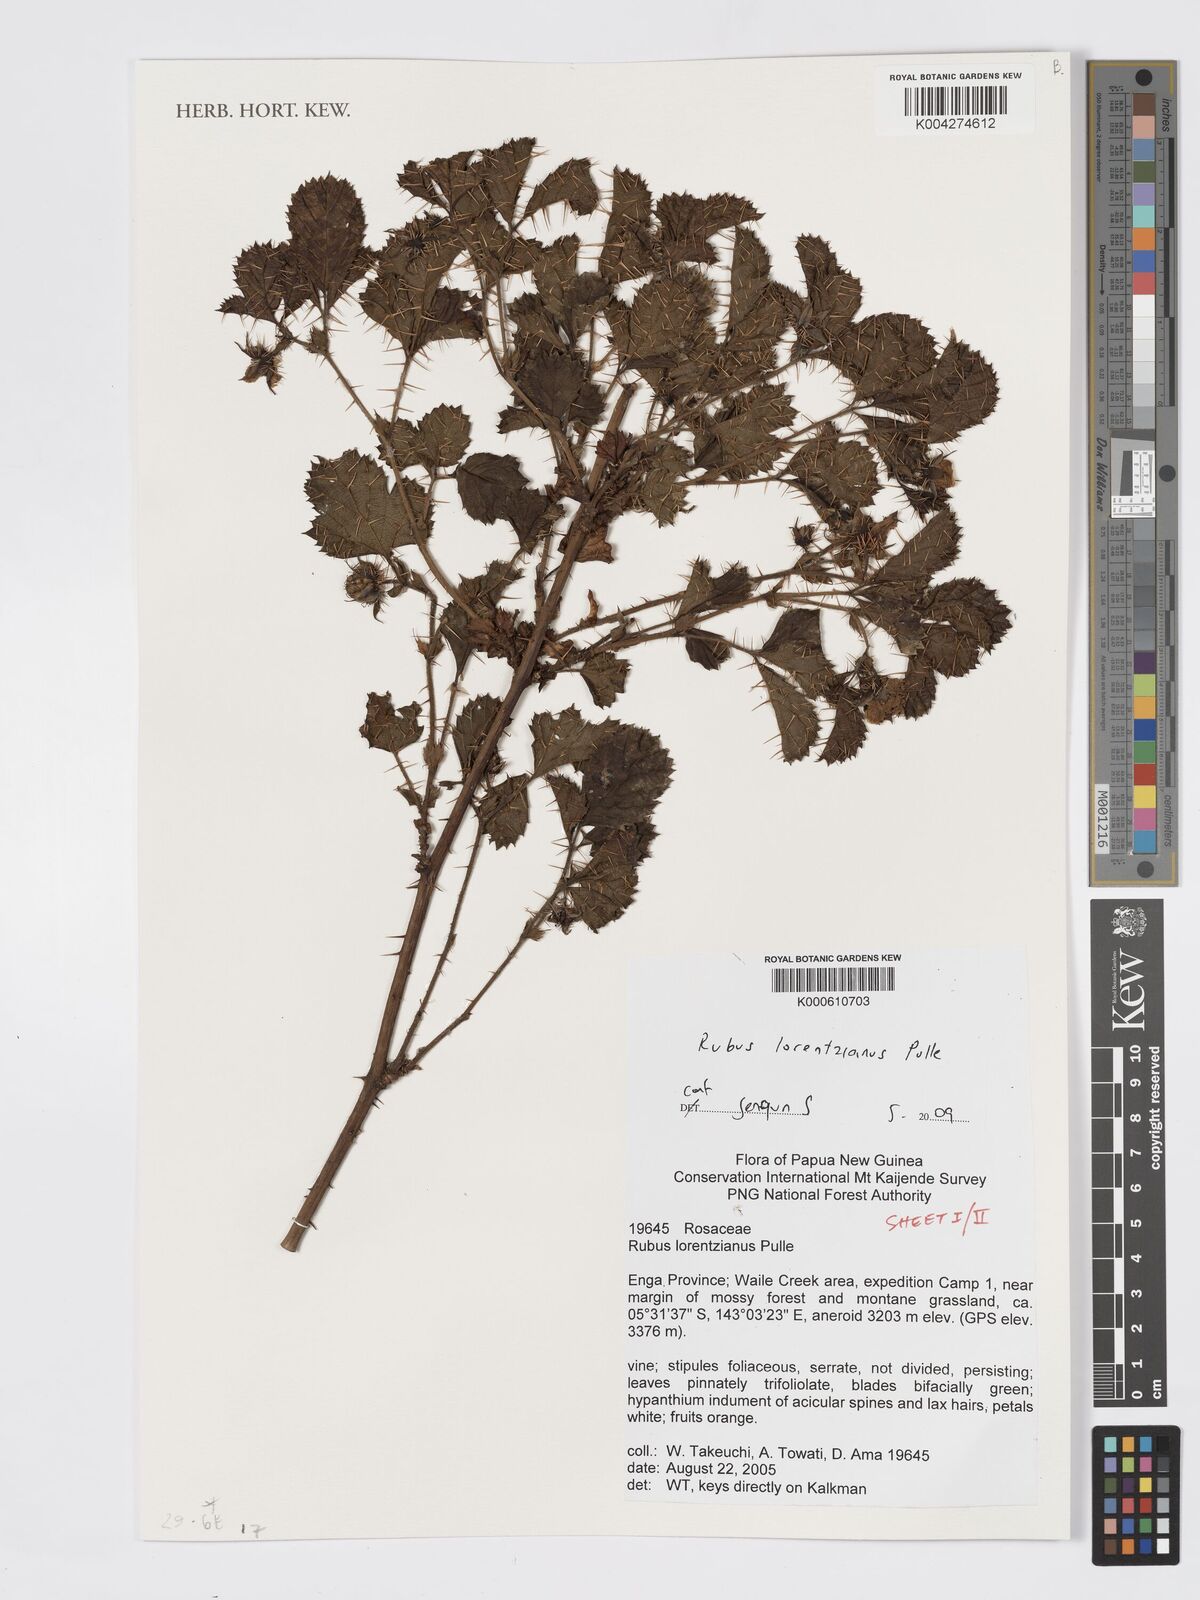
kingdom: Plantae
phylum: Tracheophyta
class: Magnoliopsida
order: Rosales
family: Rosaceae
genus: Rubus
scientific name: Rubus lorentzianus
